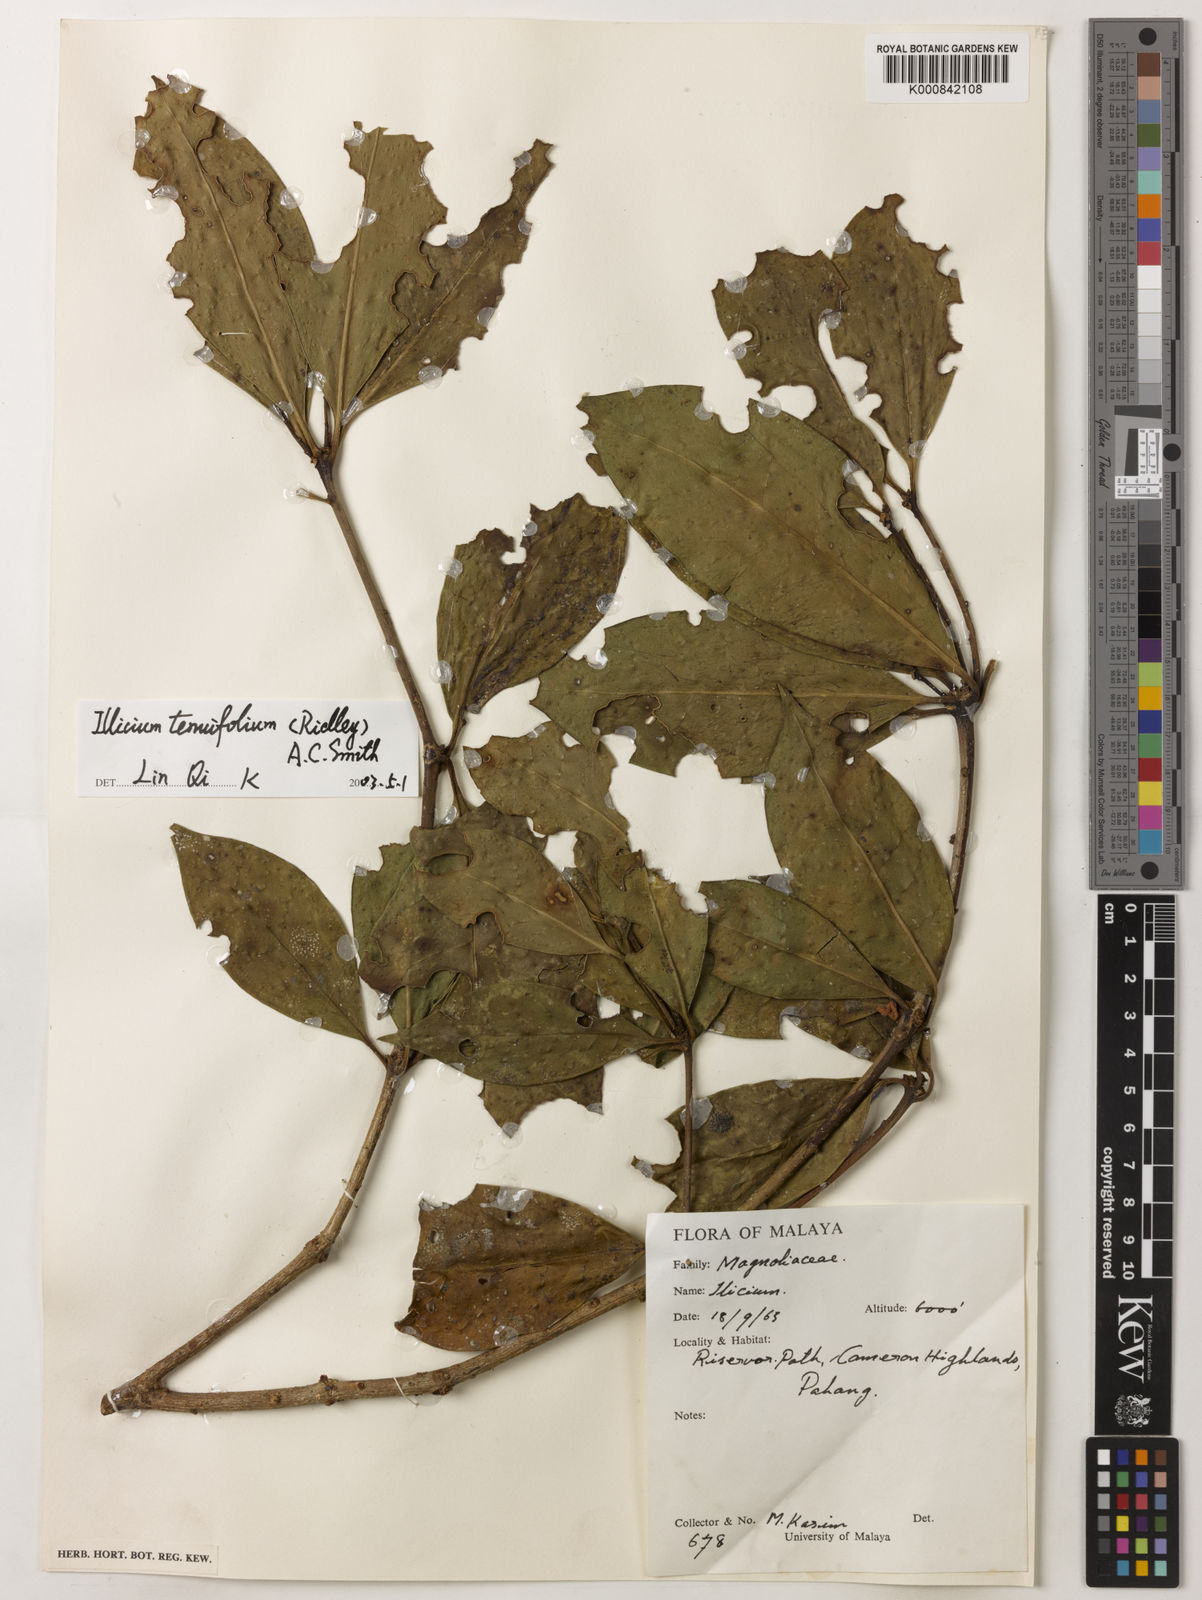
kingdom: Plantae
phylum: Tracheophyta
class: Magnoliopsida
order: Austrobaileyales
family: Schisandraceae
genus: Illicium
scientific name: Illicium tenuifolium
